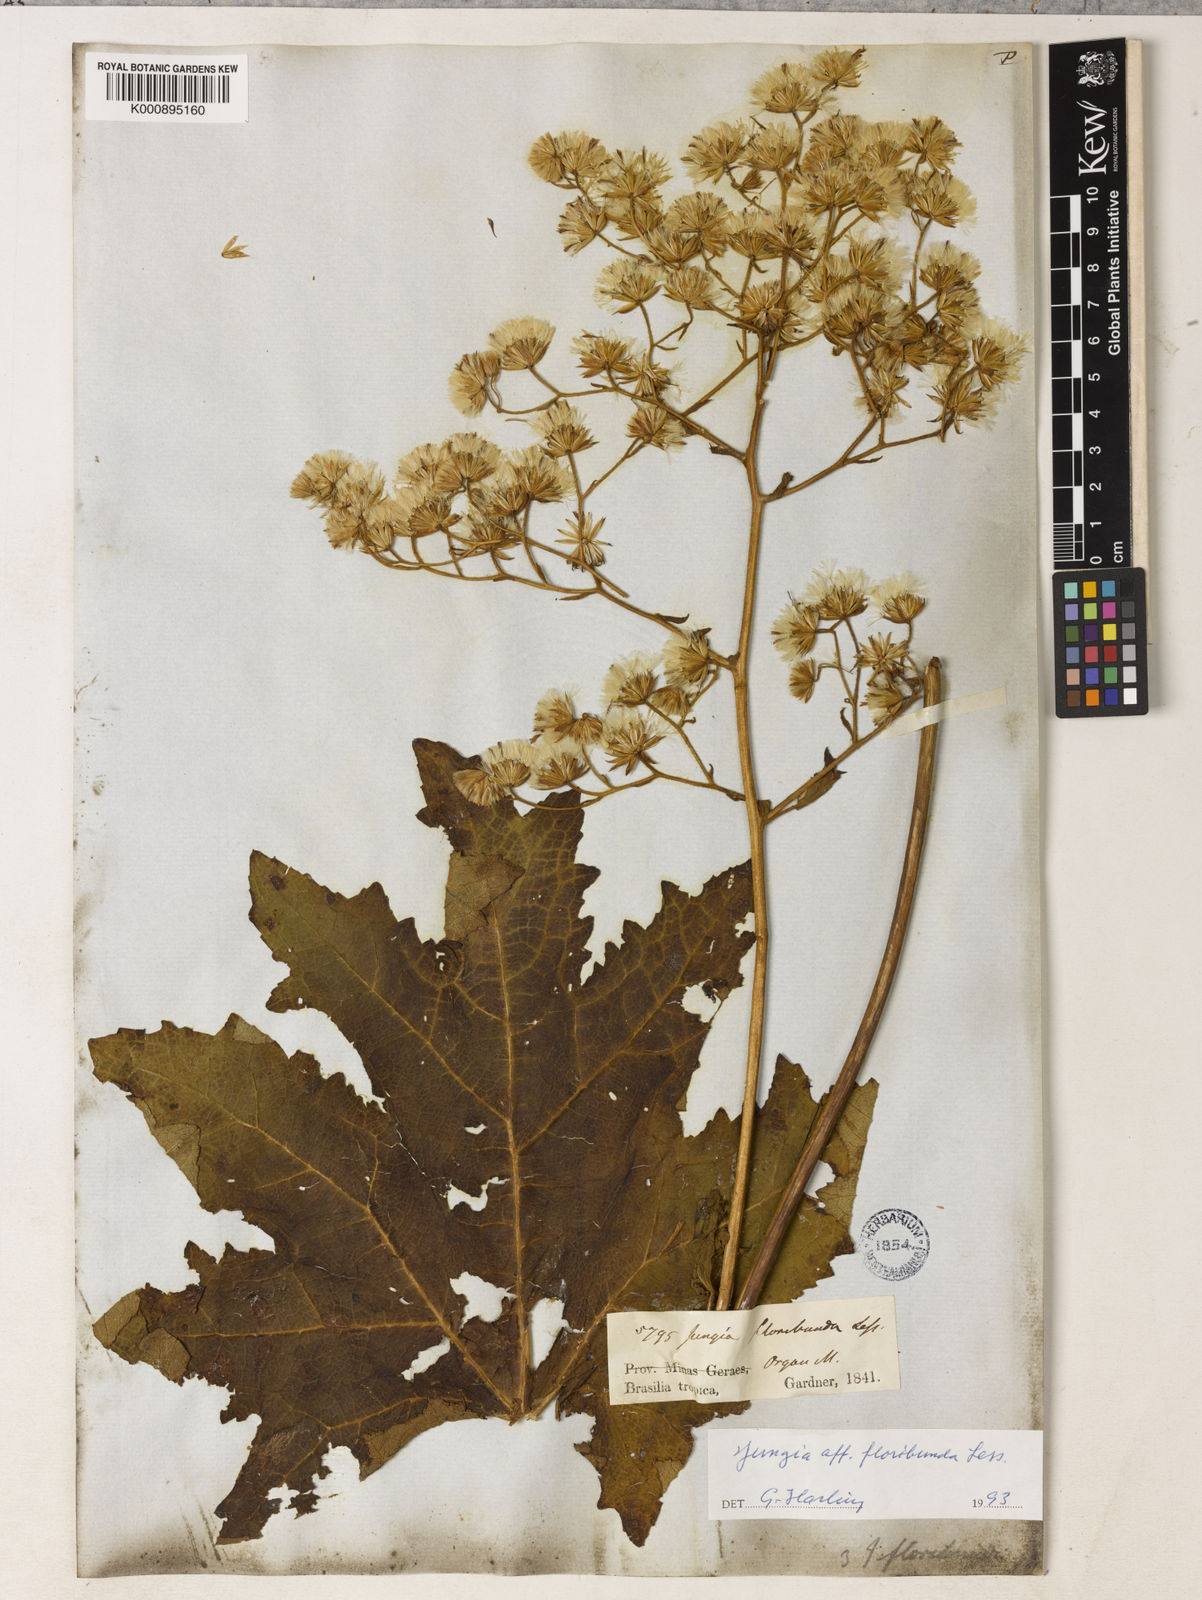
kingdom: Plantae
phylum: Tracheophyta
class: Magnoliopsida
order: Asterales
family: Asteraceae
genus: Jungia
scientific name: Jungia floribunda
